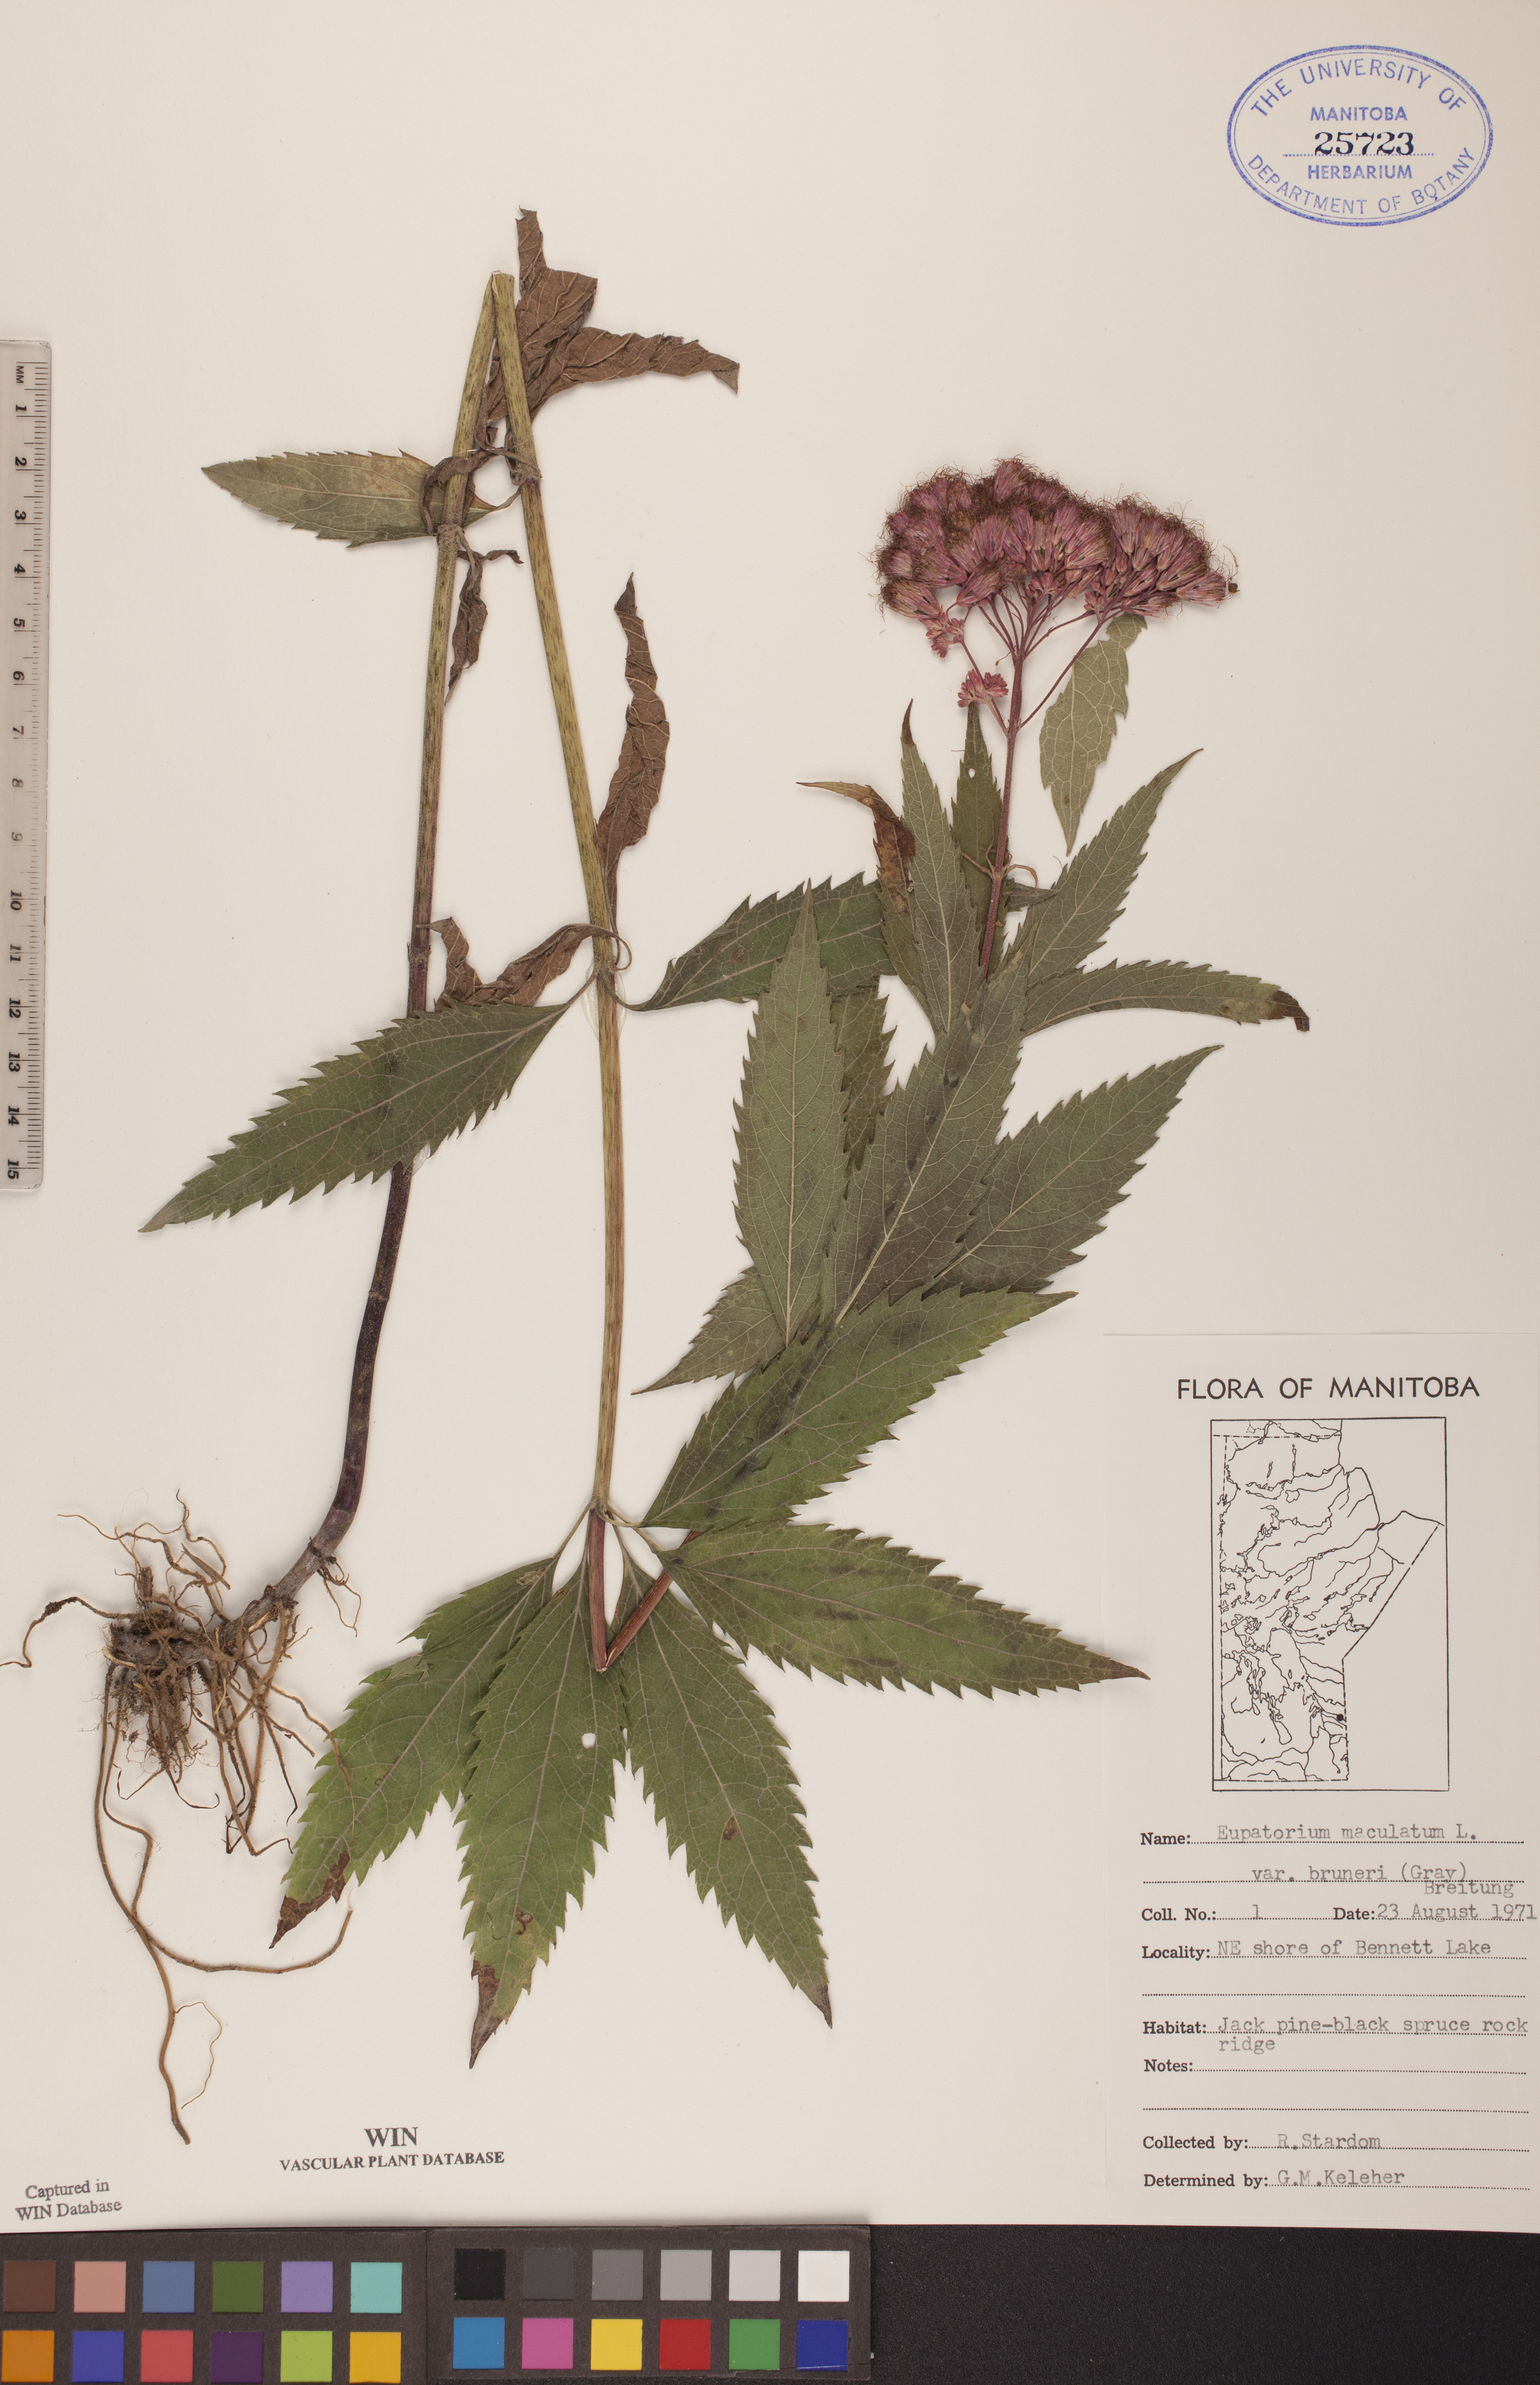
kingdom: Plantae
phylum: Tracheophyta
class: Magnoliopsida
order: Asterales
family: Asteraceae
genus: Eutrochium
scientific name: Eutrochium maculatum
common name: Spotted joe pye weed
